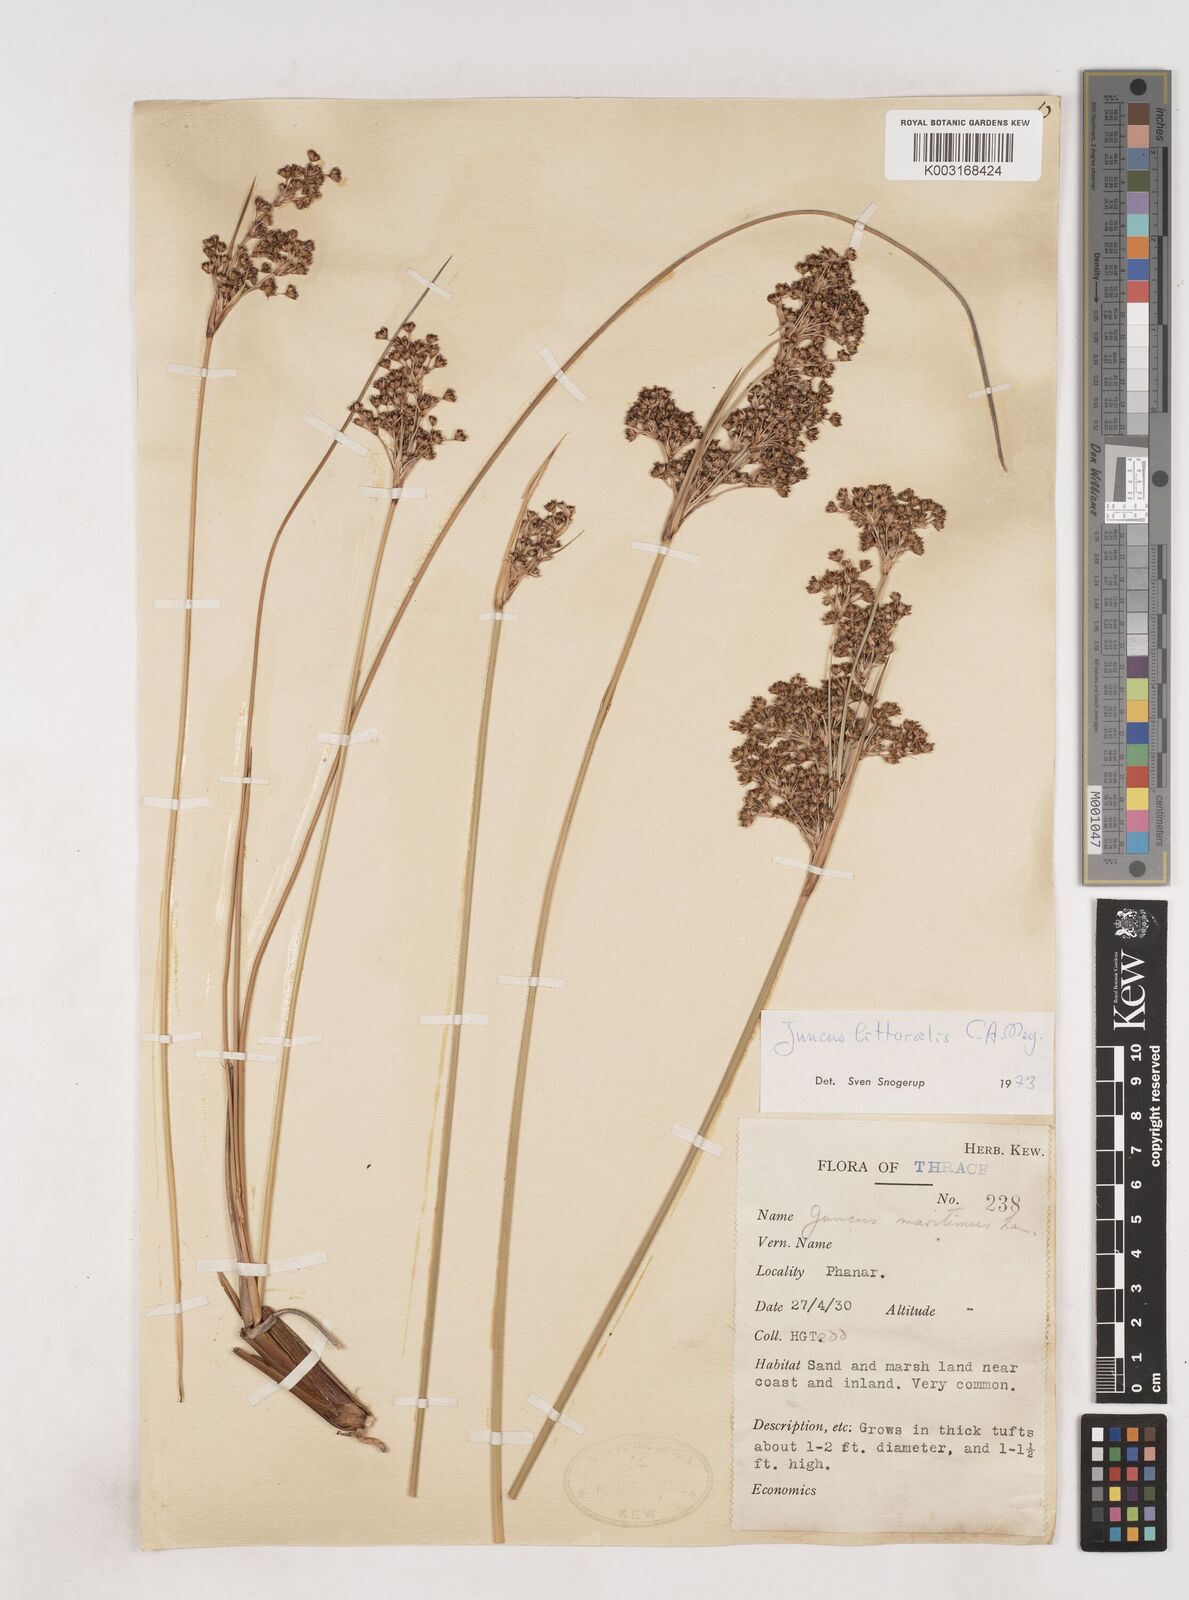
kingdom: Plantae
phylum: Tracheophyta
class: Liliopsida
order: Poales
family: Juncaceae
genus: Juncus
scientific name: Juncus
